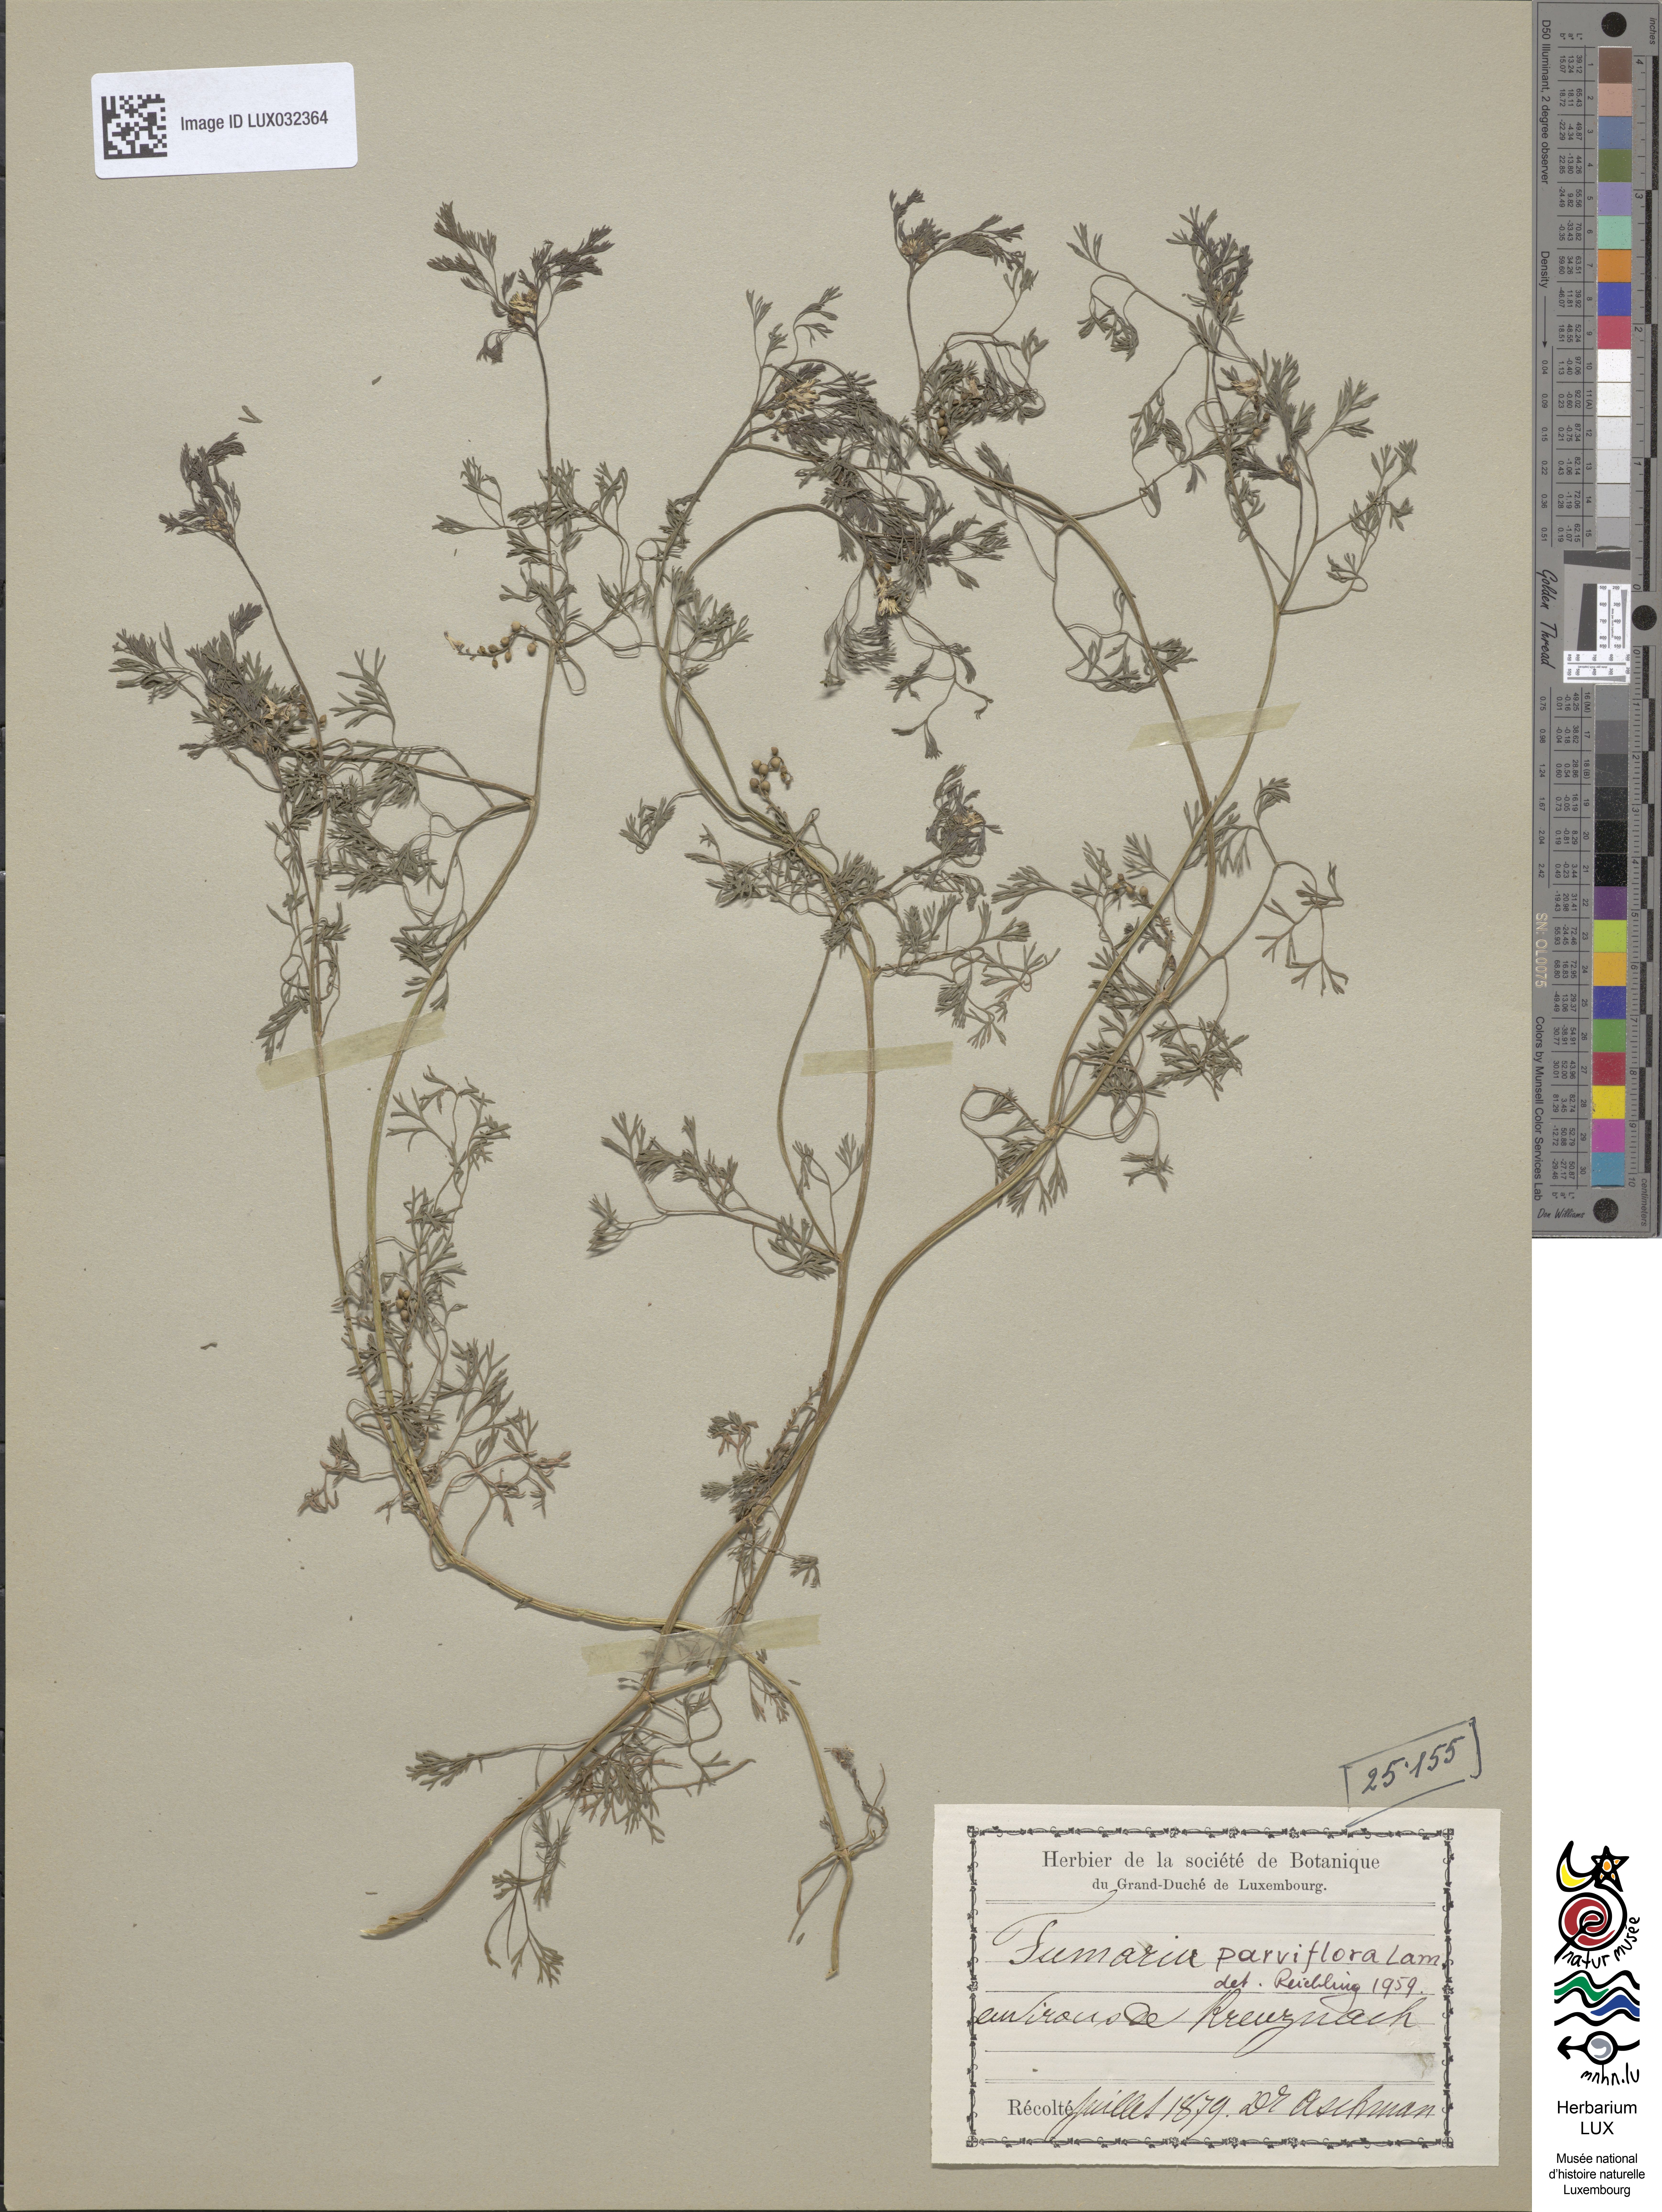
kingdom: Plantae
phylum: Tracheophyta
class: Magnoliopsida
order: Ranunculales
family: Papaveraceae
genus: Fumaria
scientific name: Fumaria parviflora
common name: Fine-leaved fumitory
